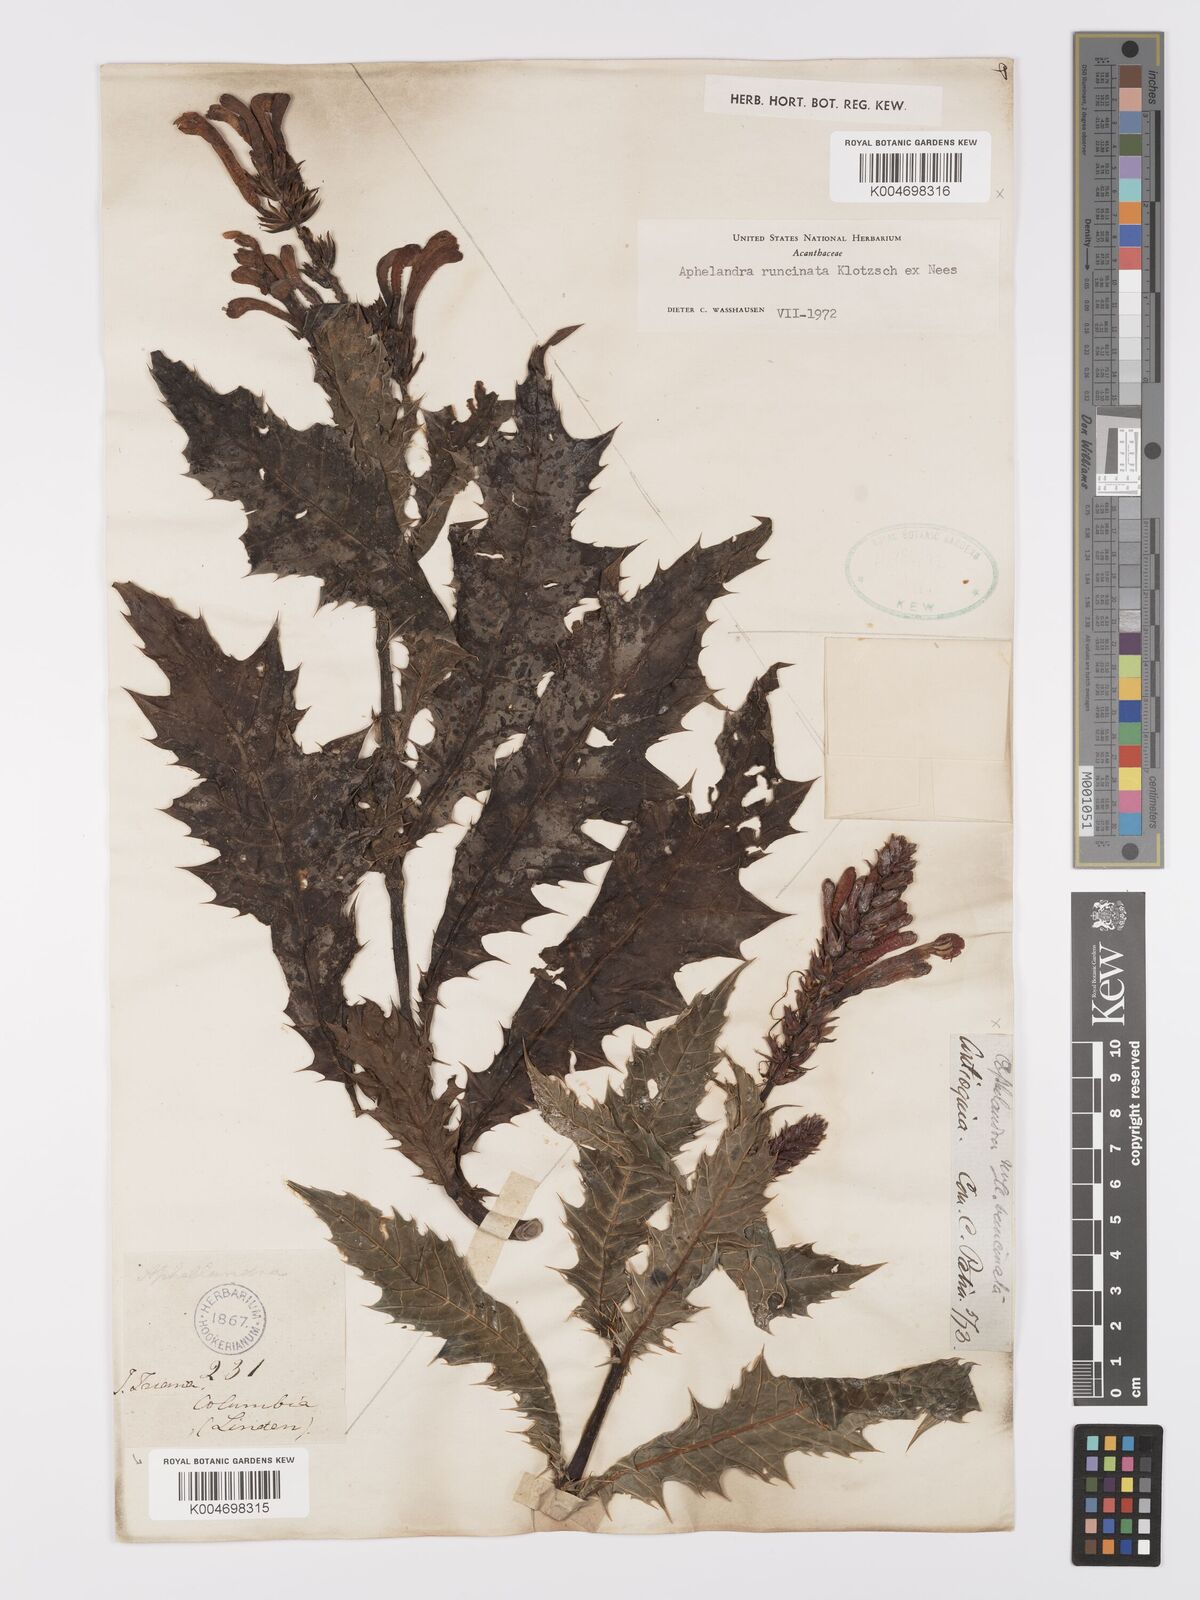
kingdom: Plantae
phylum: Tracheophyta
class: Magnoliopsida
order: Lamiales
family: Acanthaceae
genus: Aphelandra
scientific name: Aphelandra runcinata
